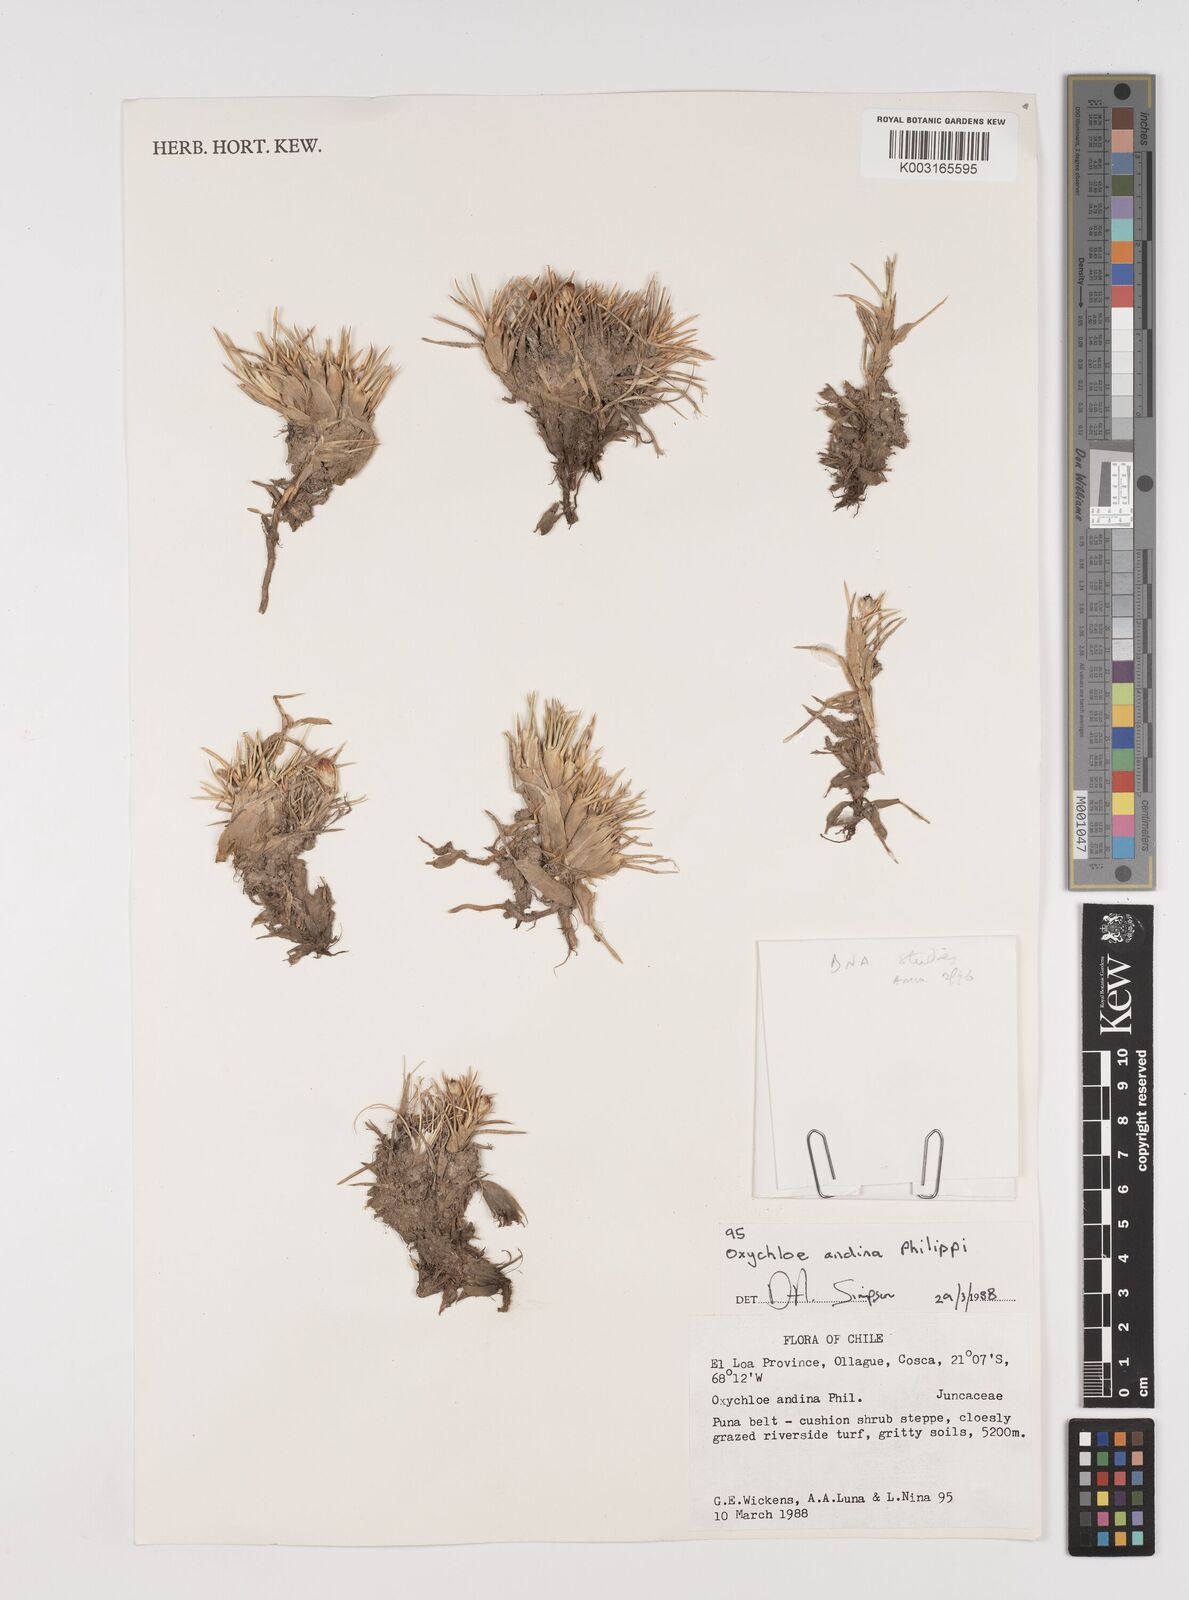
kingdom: Plantae
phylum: Tracheophyta
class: Liliopsida
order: Poales
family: Juncaceae
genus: Oxychloe
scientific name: Oxychloe andina
